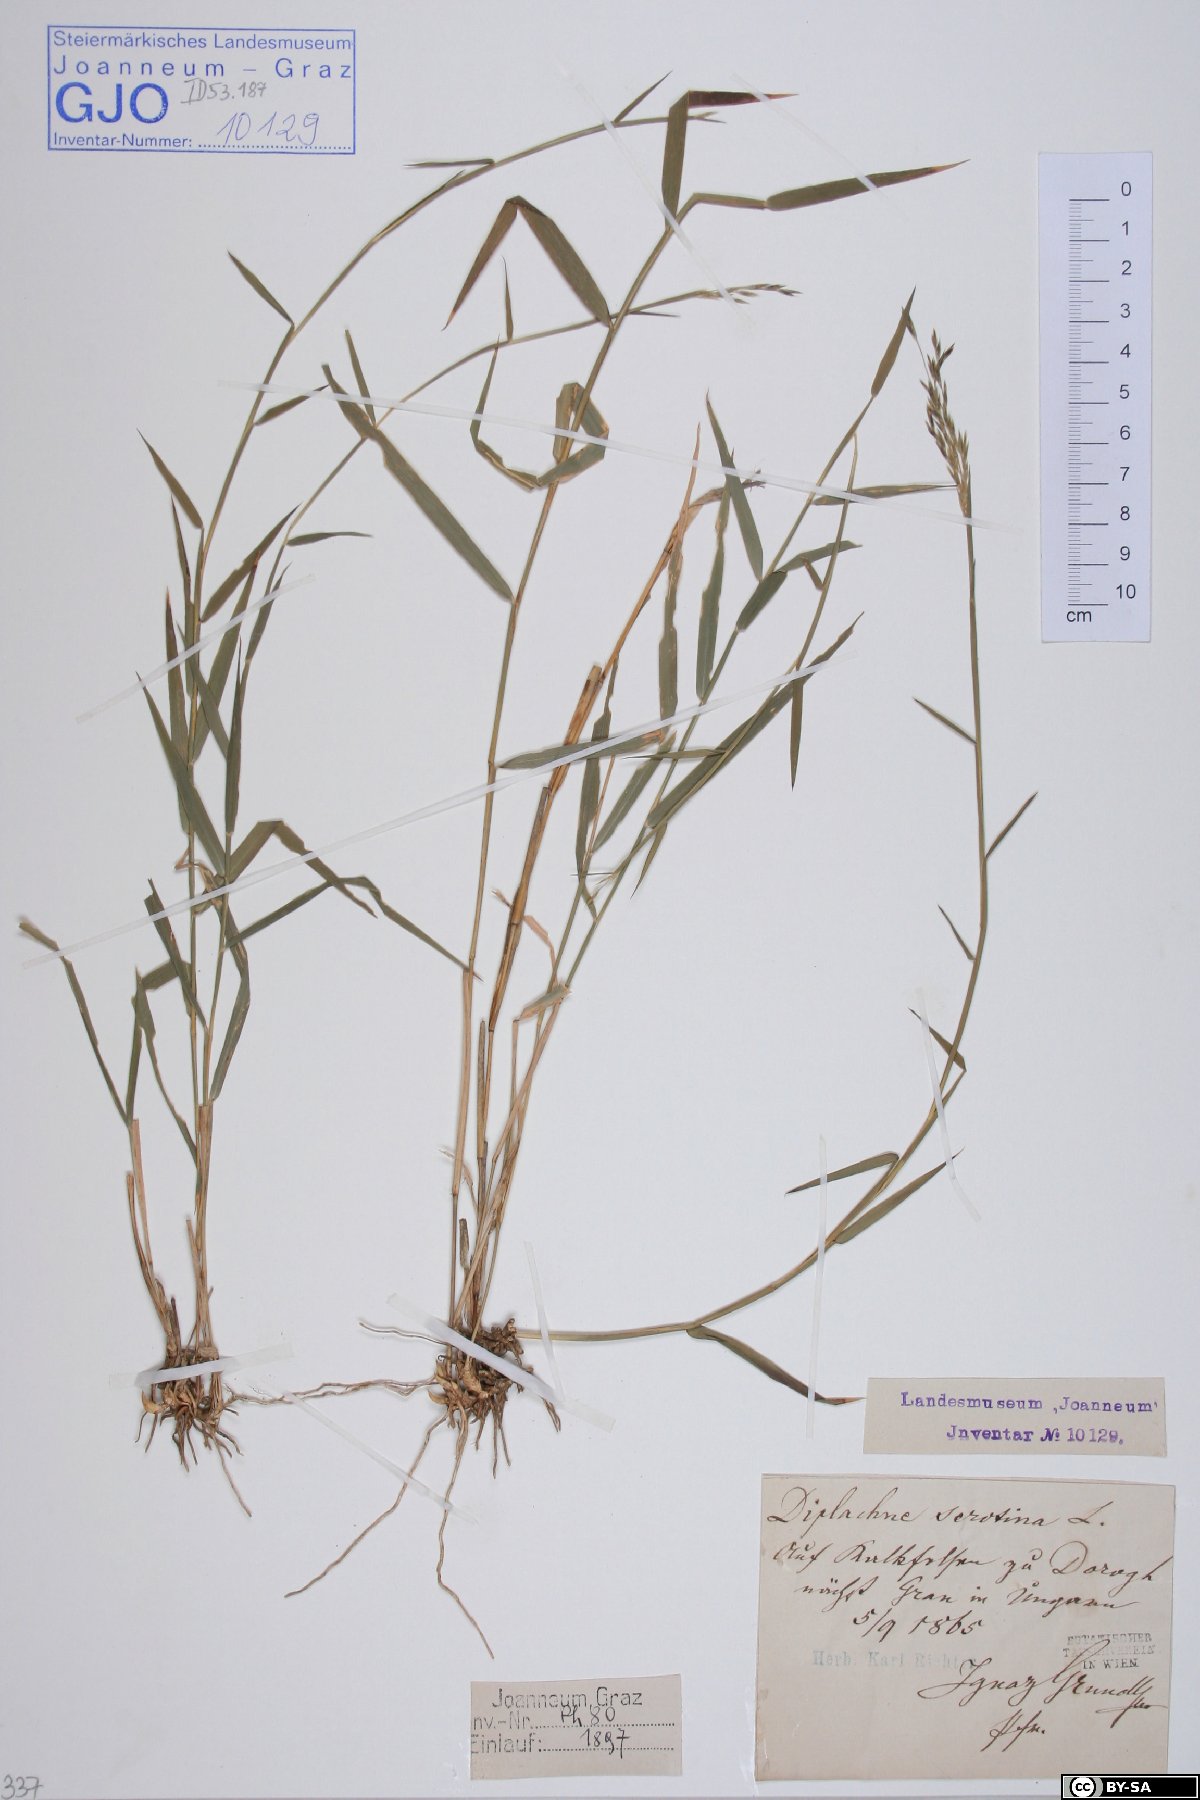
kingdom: Plantae
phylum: Tracheophyta
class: Liliopsida
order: Poales
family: Poaceae
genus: Cleistogenes
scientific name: Cleistogenes serotina
